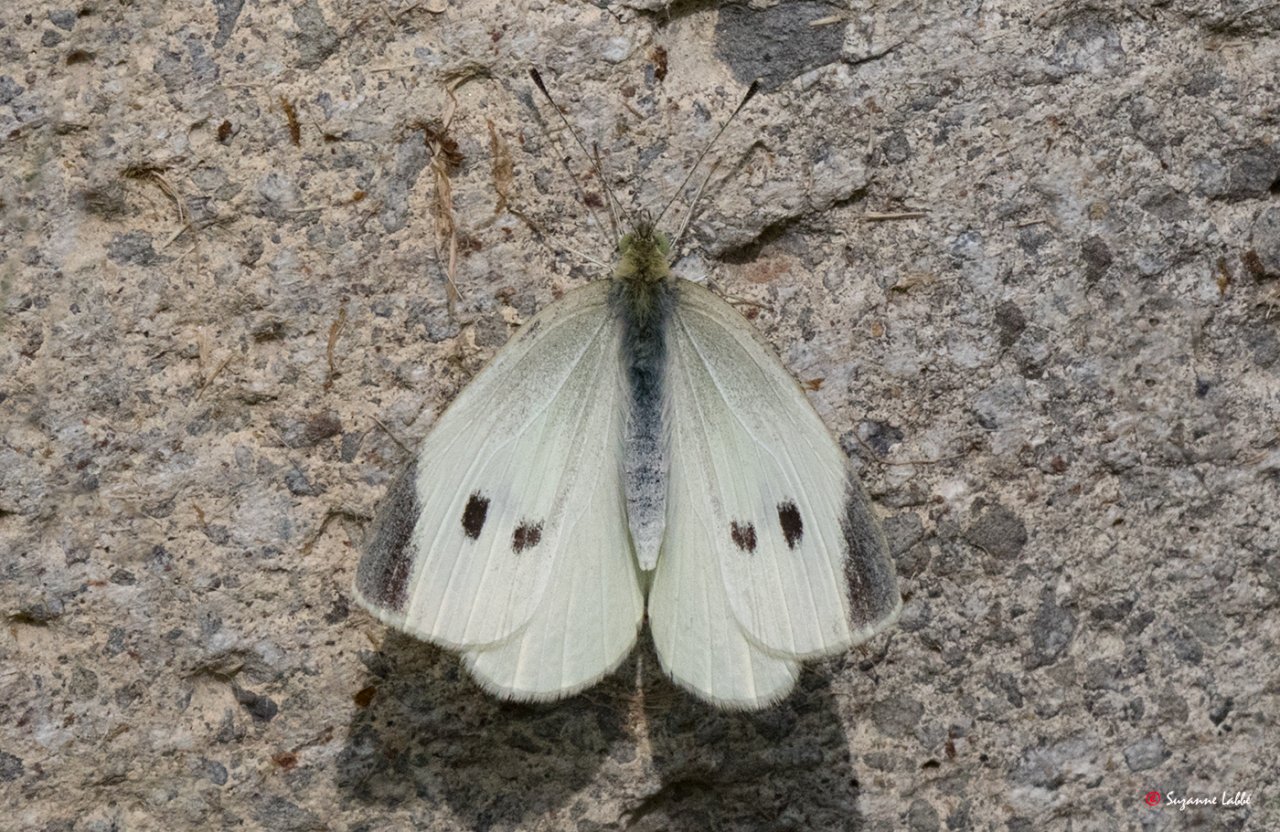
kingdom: Animalia
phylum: Arthropoda
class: Insecta
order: Lepidoptera
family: Pieridae
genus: Pieris
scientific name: Pieris rapae
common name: Cabbage White
